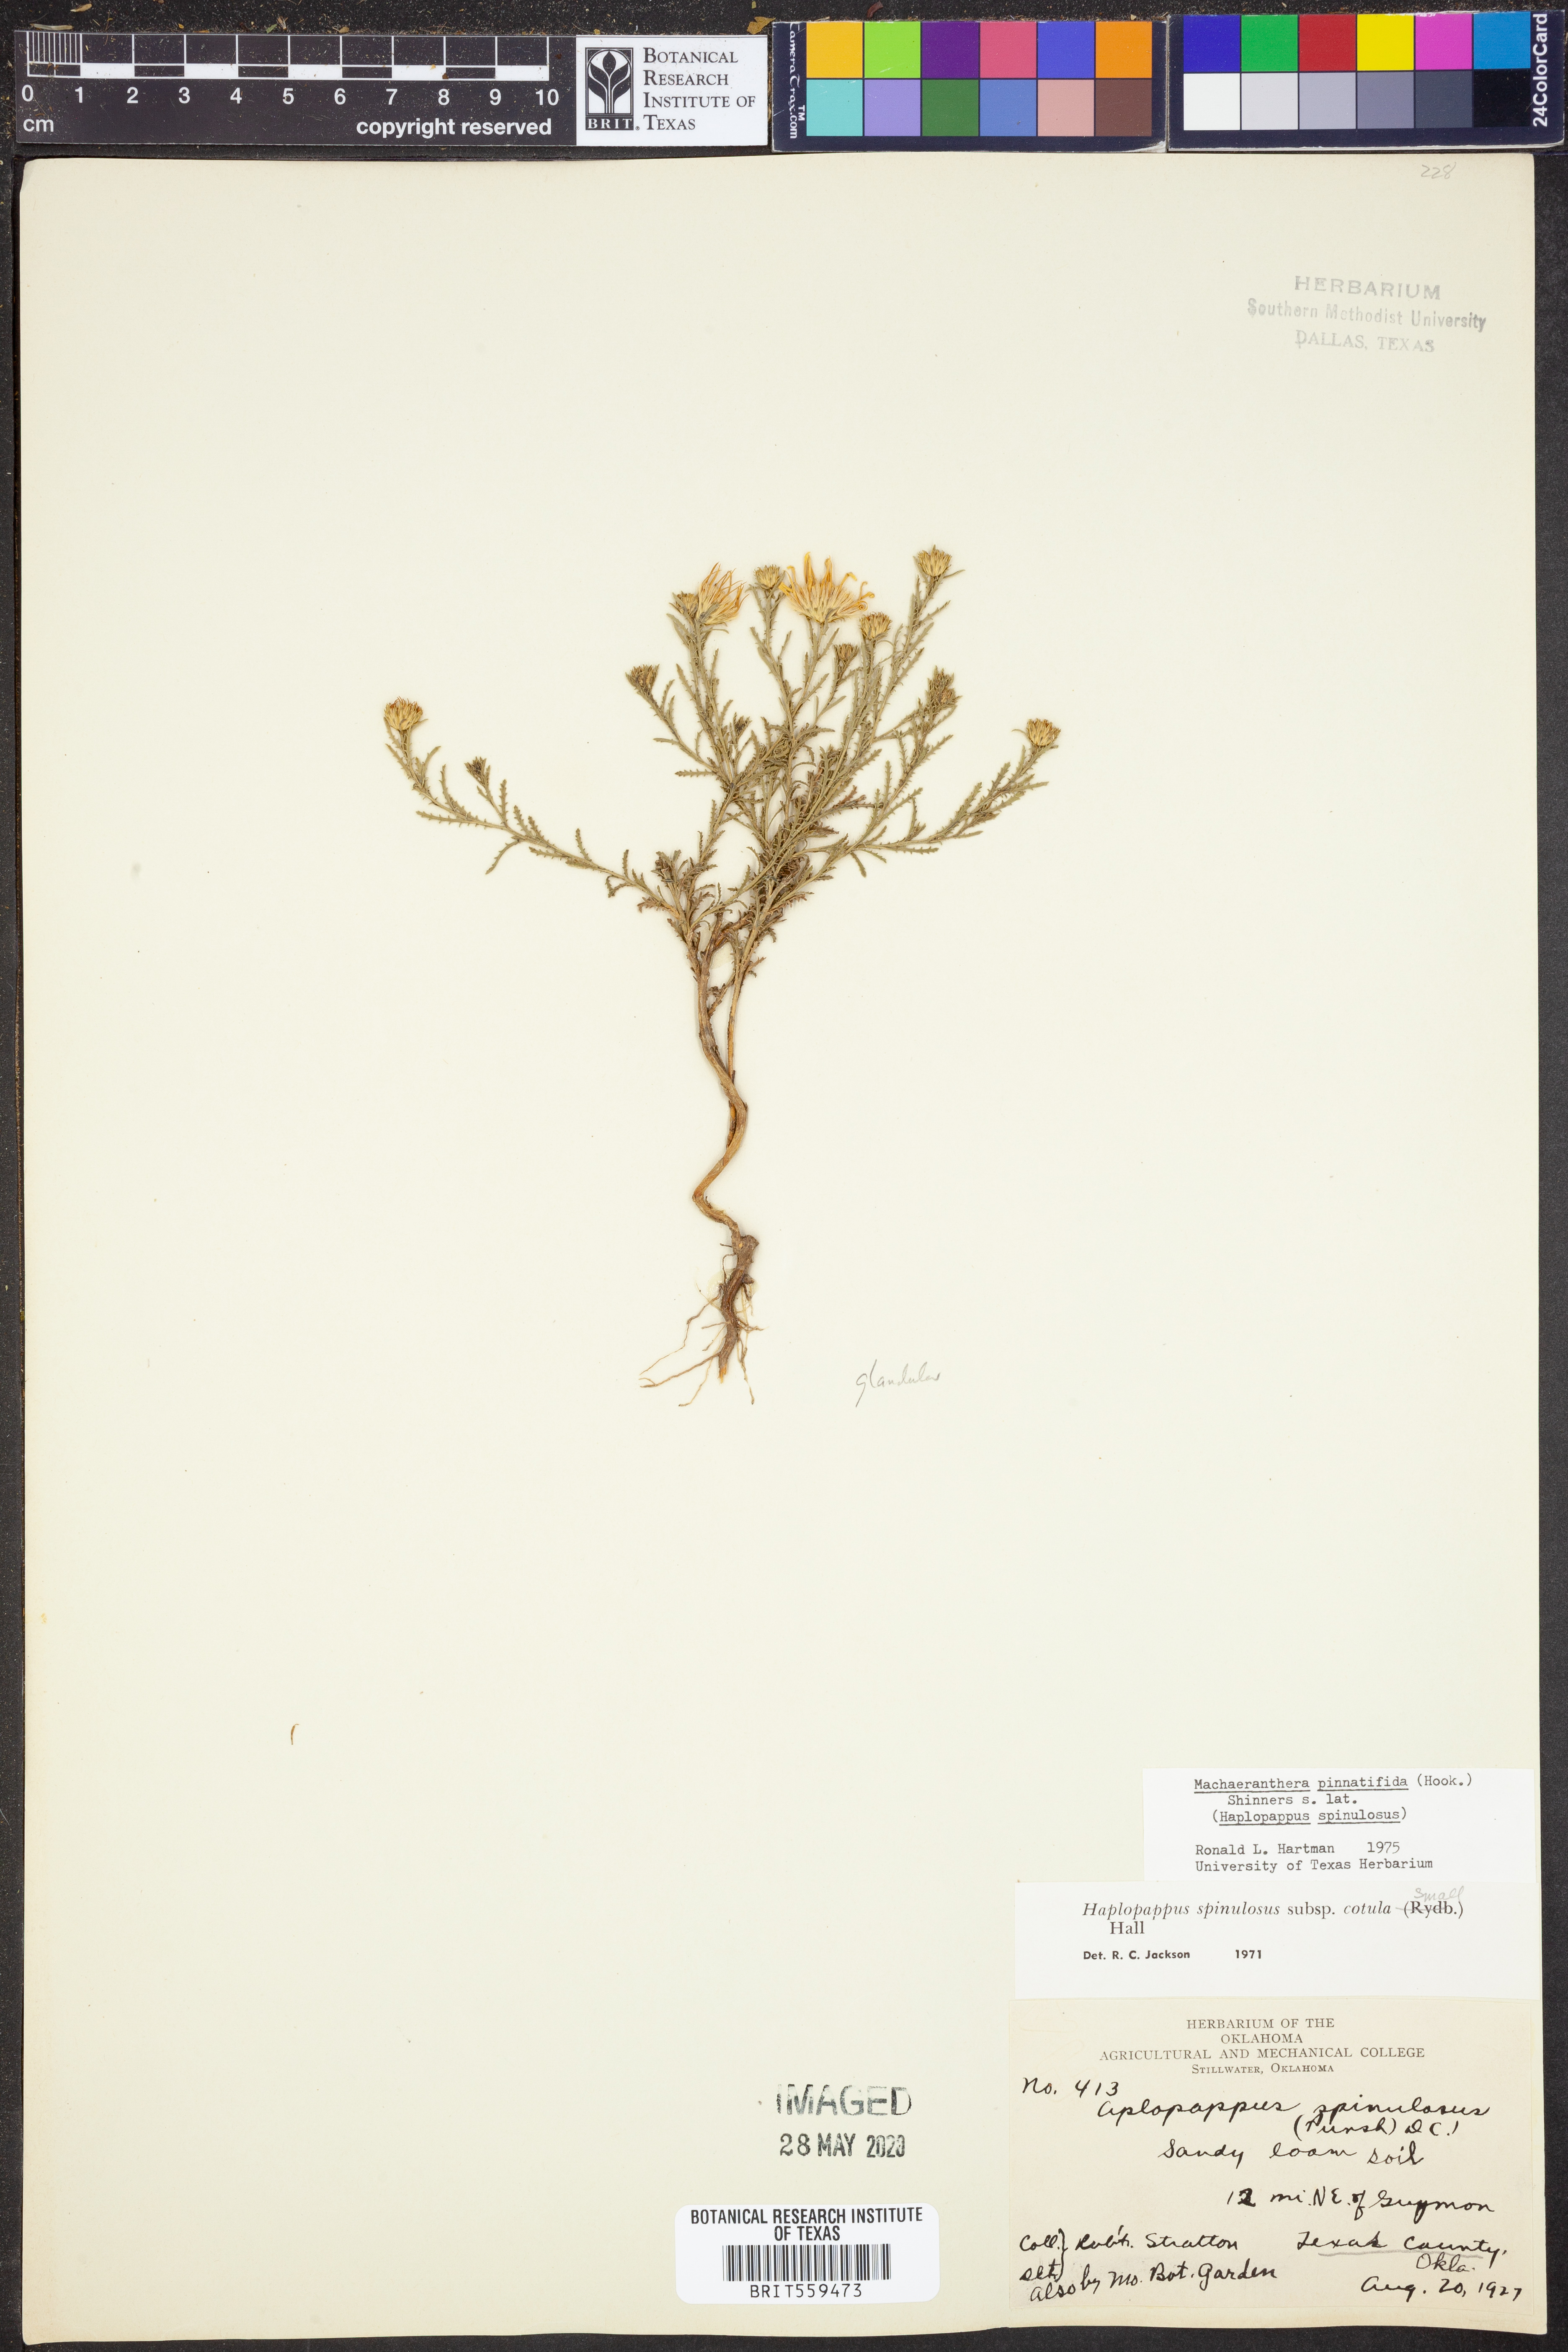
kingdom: Plantae
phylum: Tracheophyta
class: Magnoliopsida
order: Asterales
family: Asteraceae
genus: Xanthisma
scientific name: Xanthisma spinulosum
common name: Spiny goldenweed
